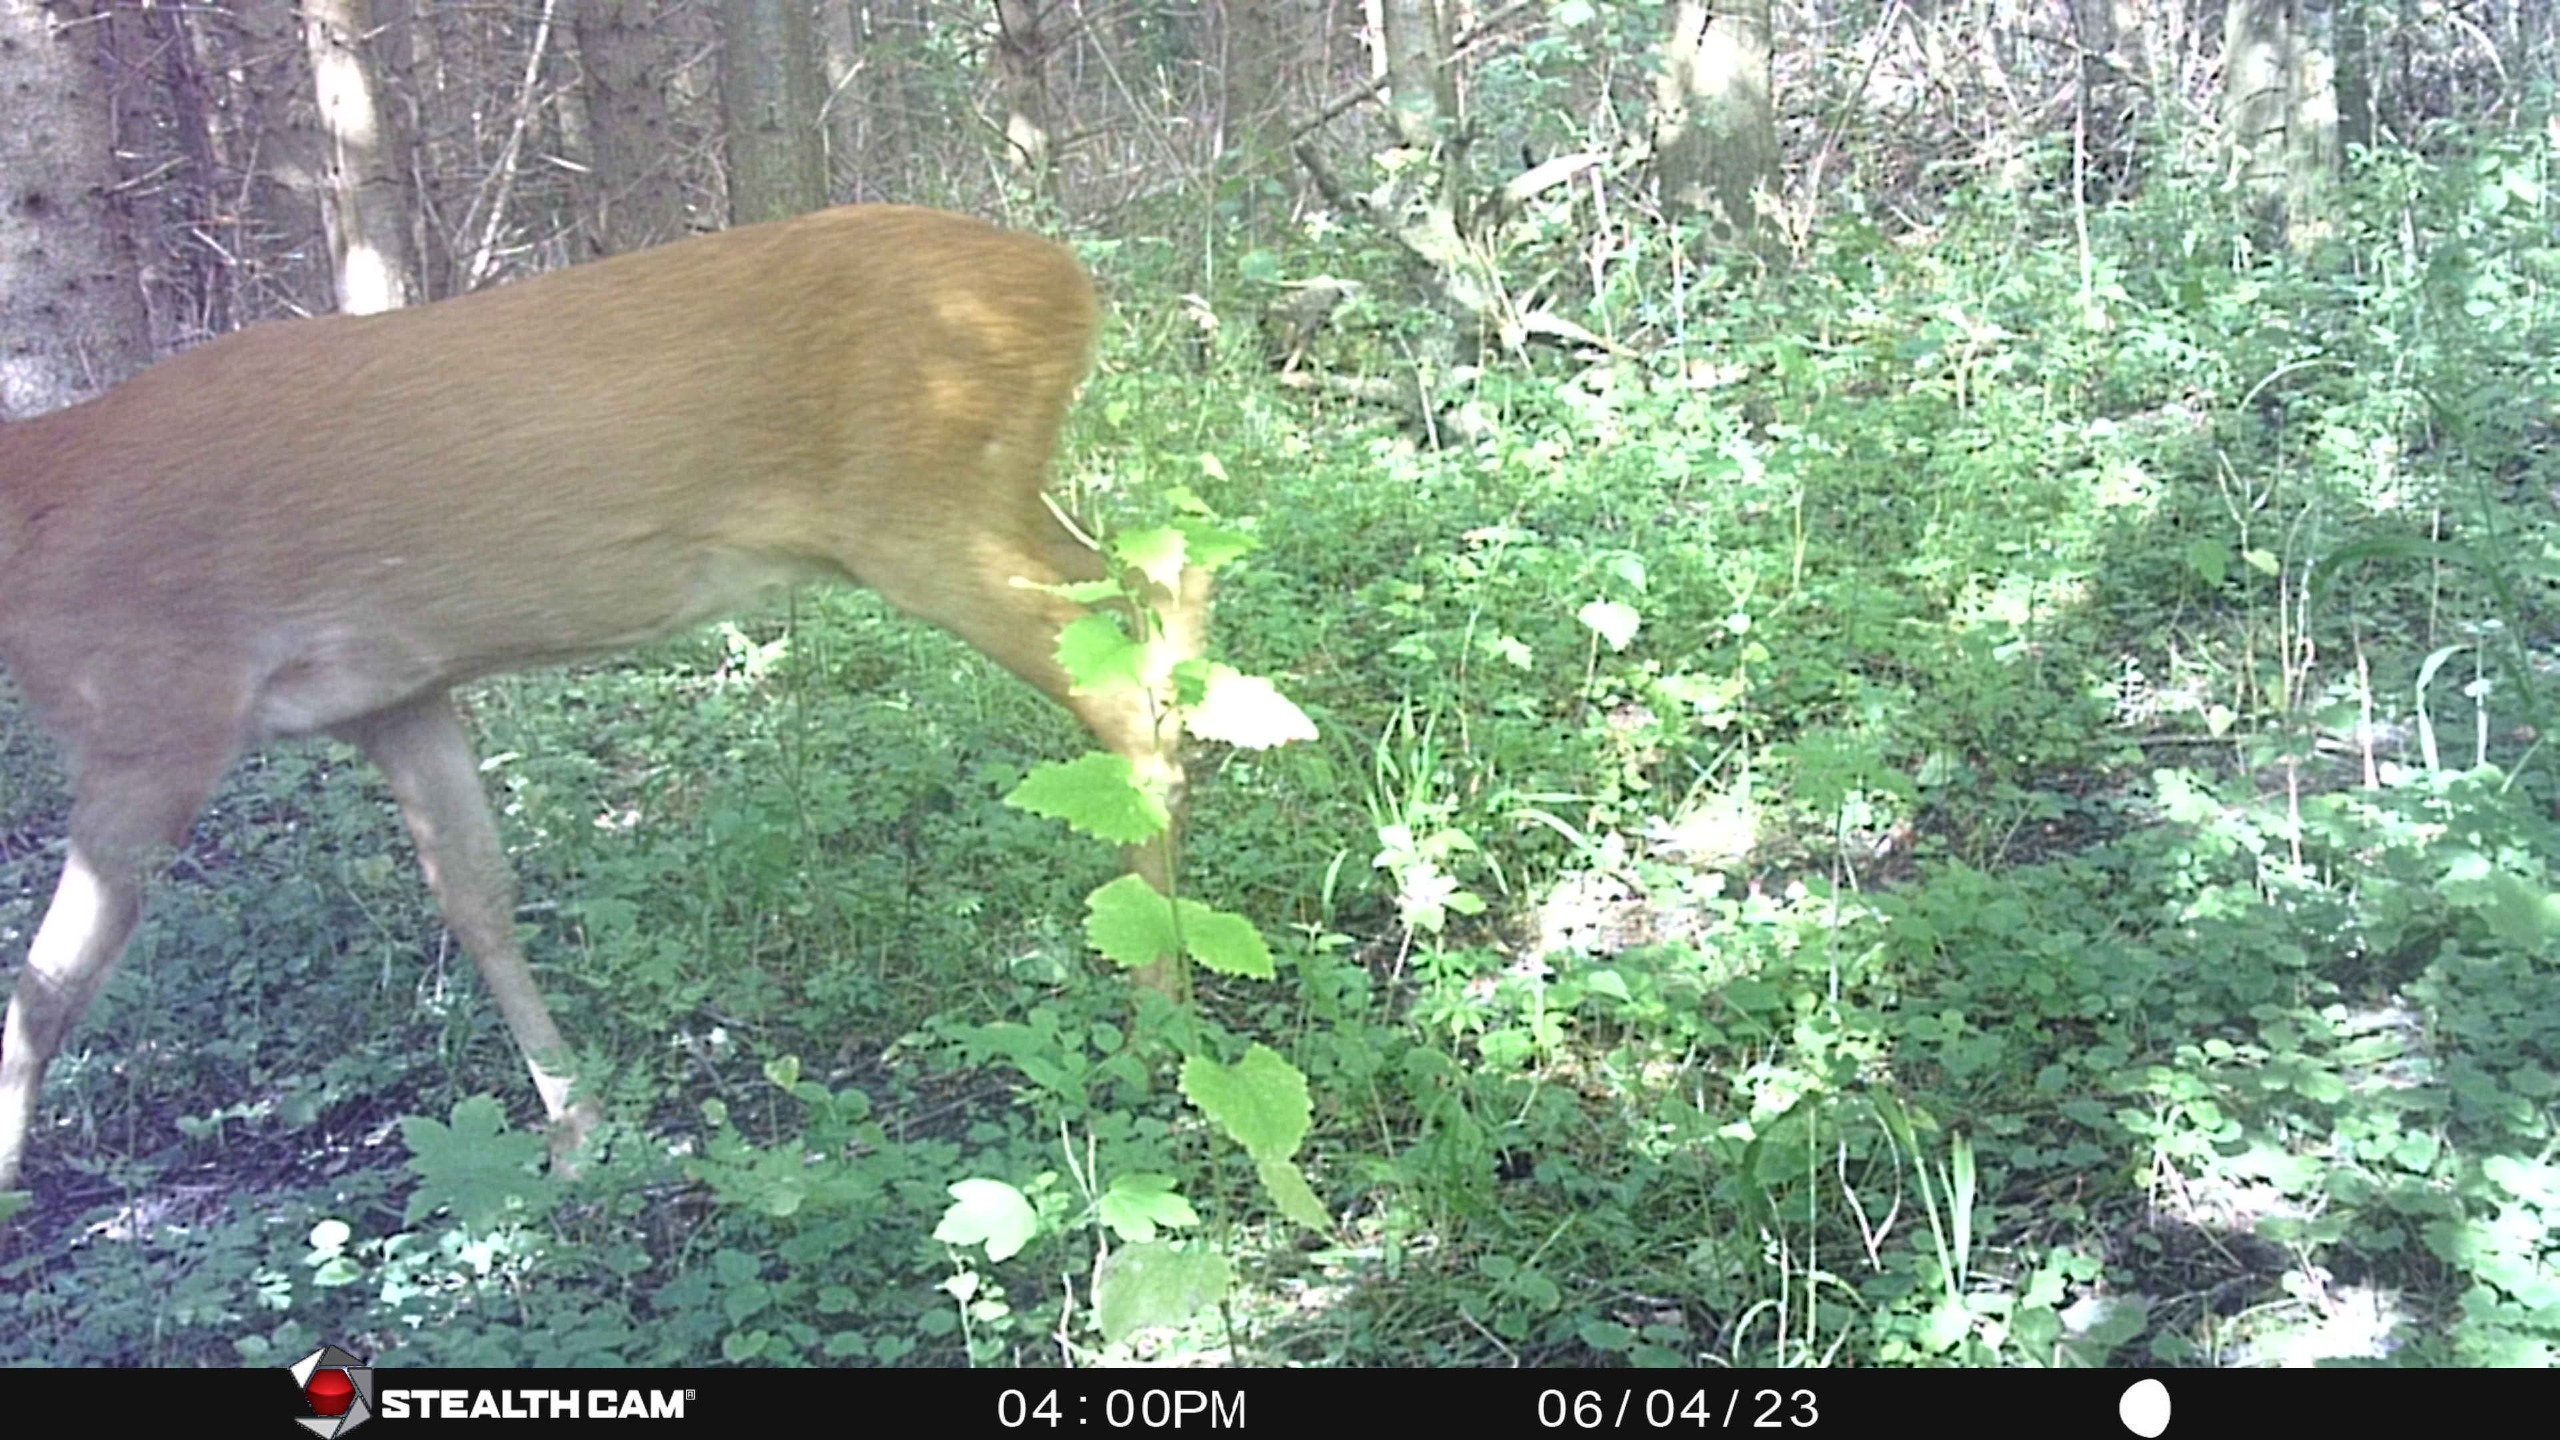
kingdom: Animalia
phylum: Chordata
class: Mammalia
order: Artiodactyla
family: Cervidae
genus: Capreolus
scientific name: Capreolus capreolus
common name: Rådyr
